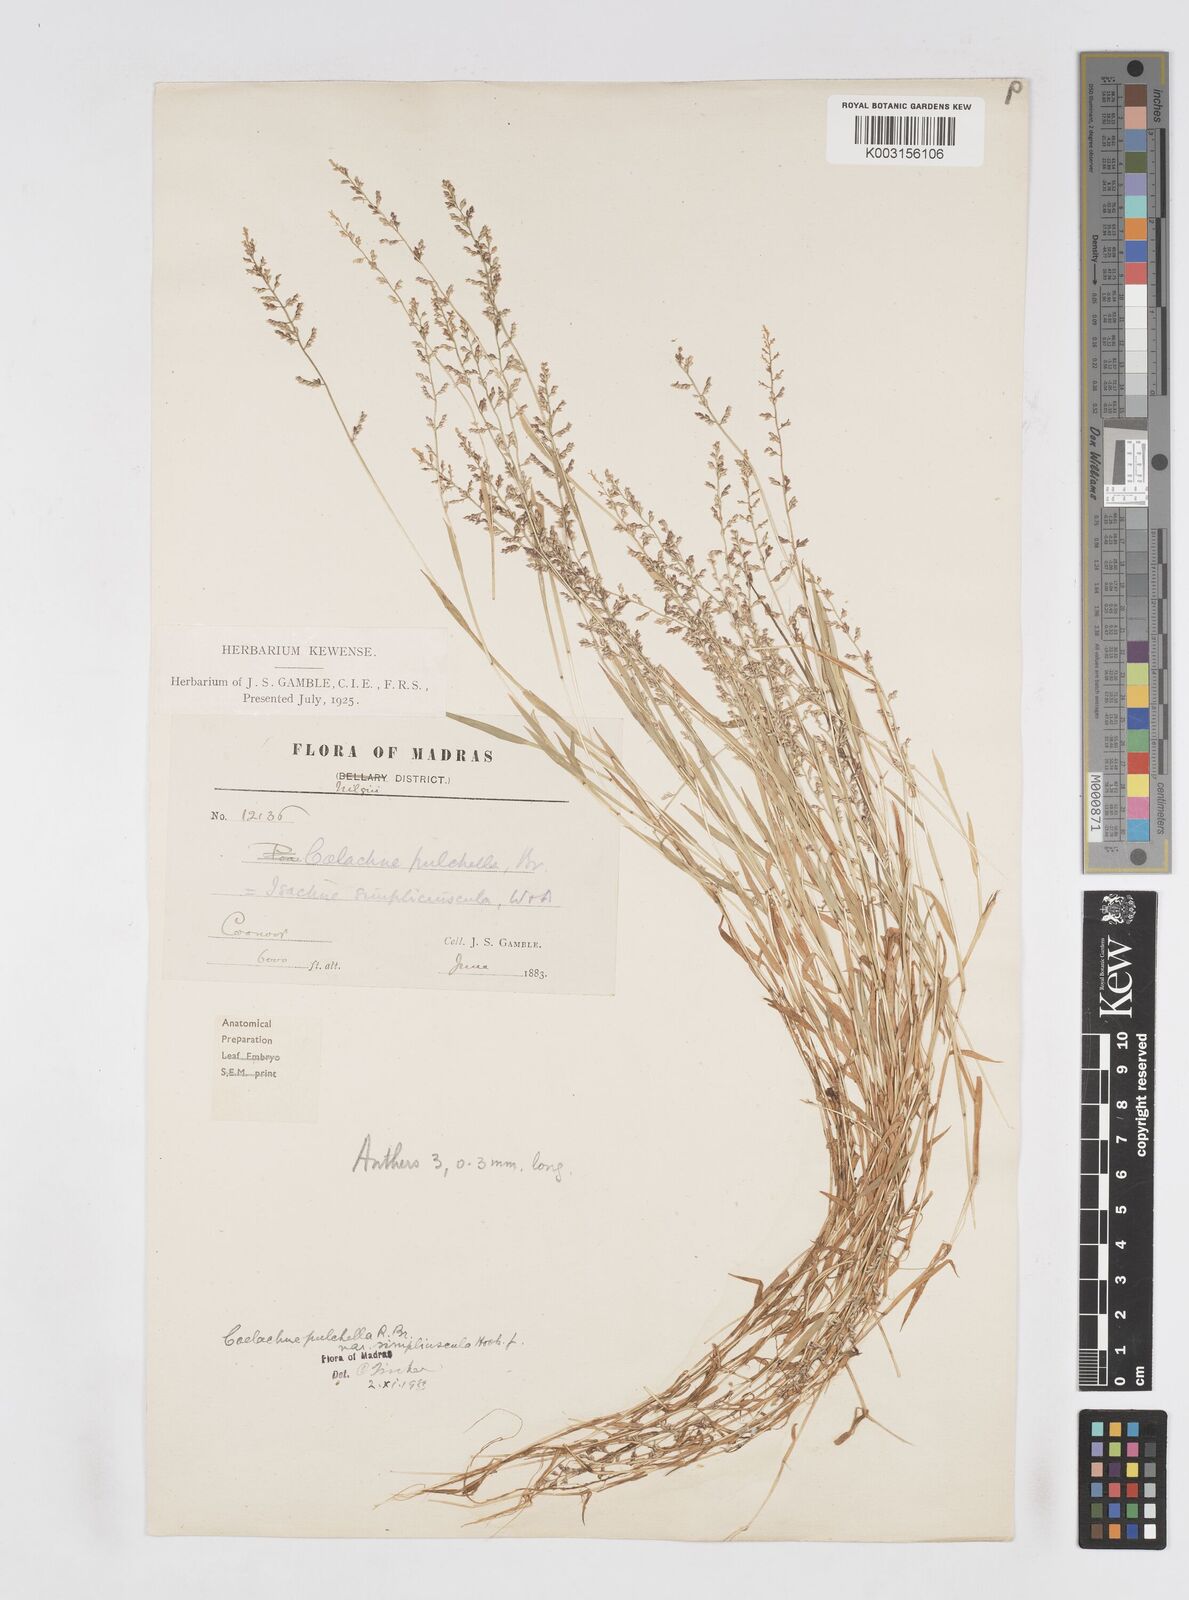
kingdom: Plantae
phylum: Tracheophyta
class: Liliopsida
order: Poales
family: Poaceae
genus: Coelachne
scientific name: Coelachne simpliciuscula
